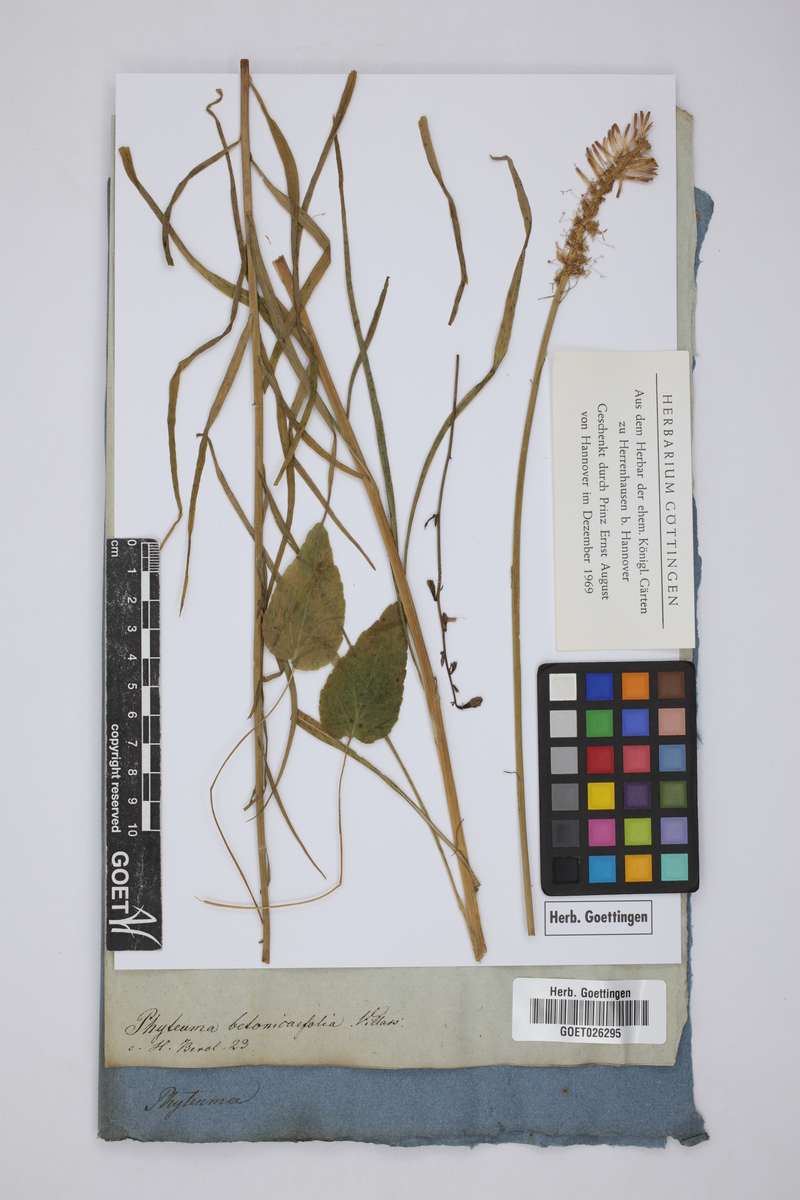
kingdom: Plantae
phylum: Tracheophyta
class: Magnoliopsida
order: Asterales
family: Campanulaceae
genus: Phyteuma
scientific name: Phyteuma betonicifolium
